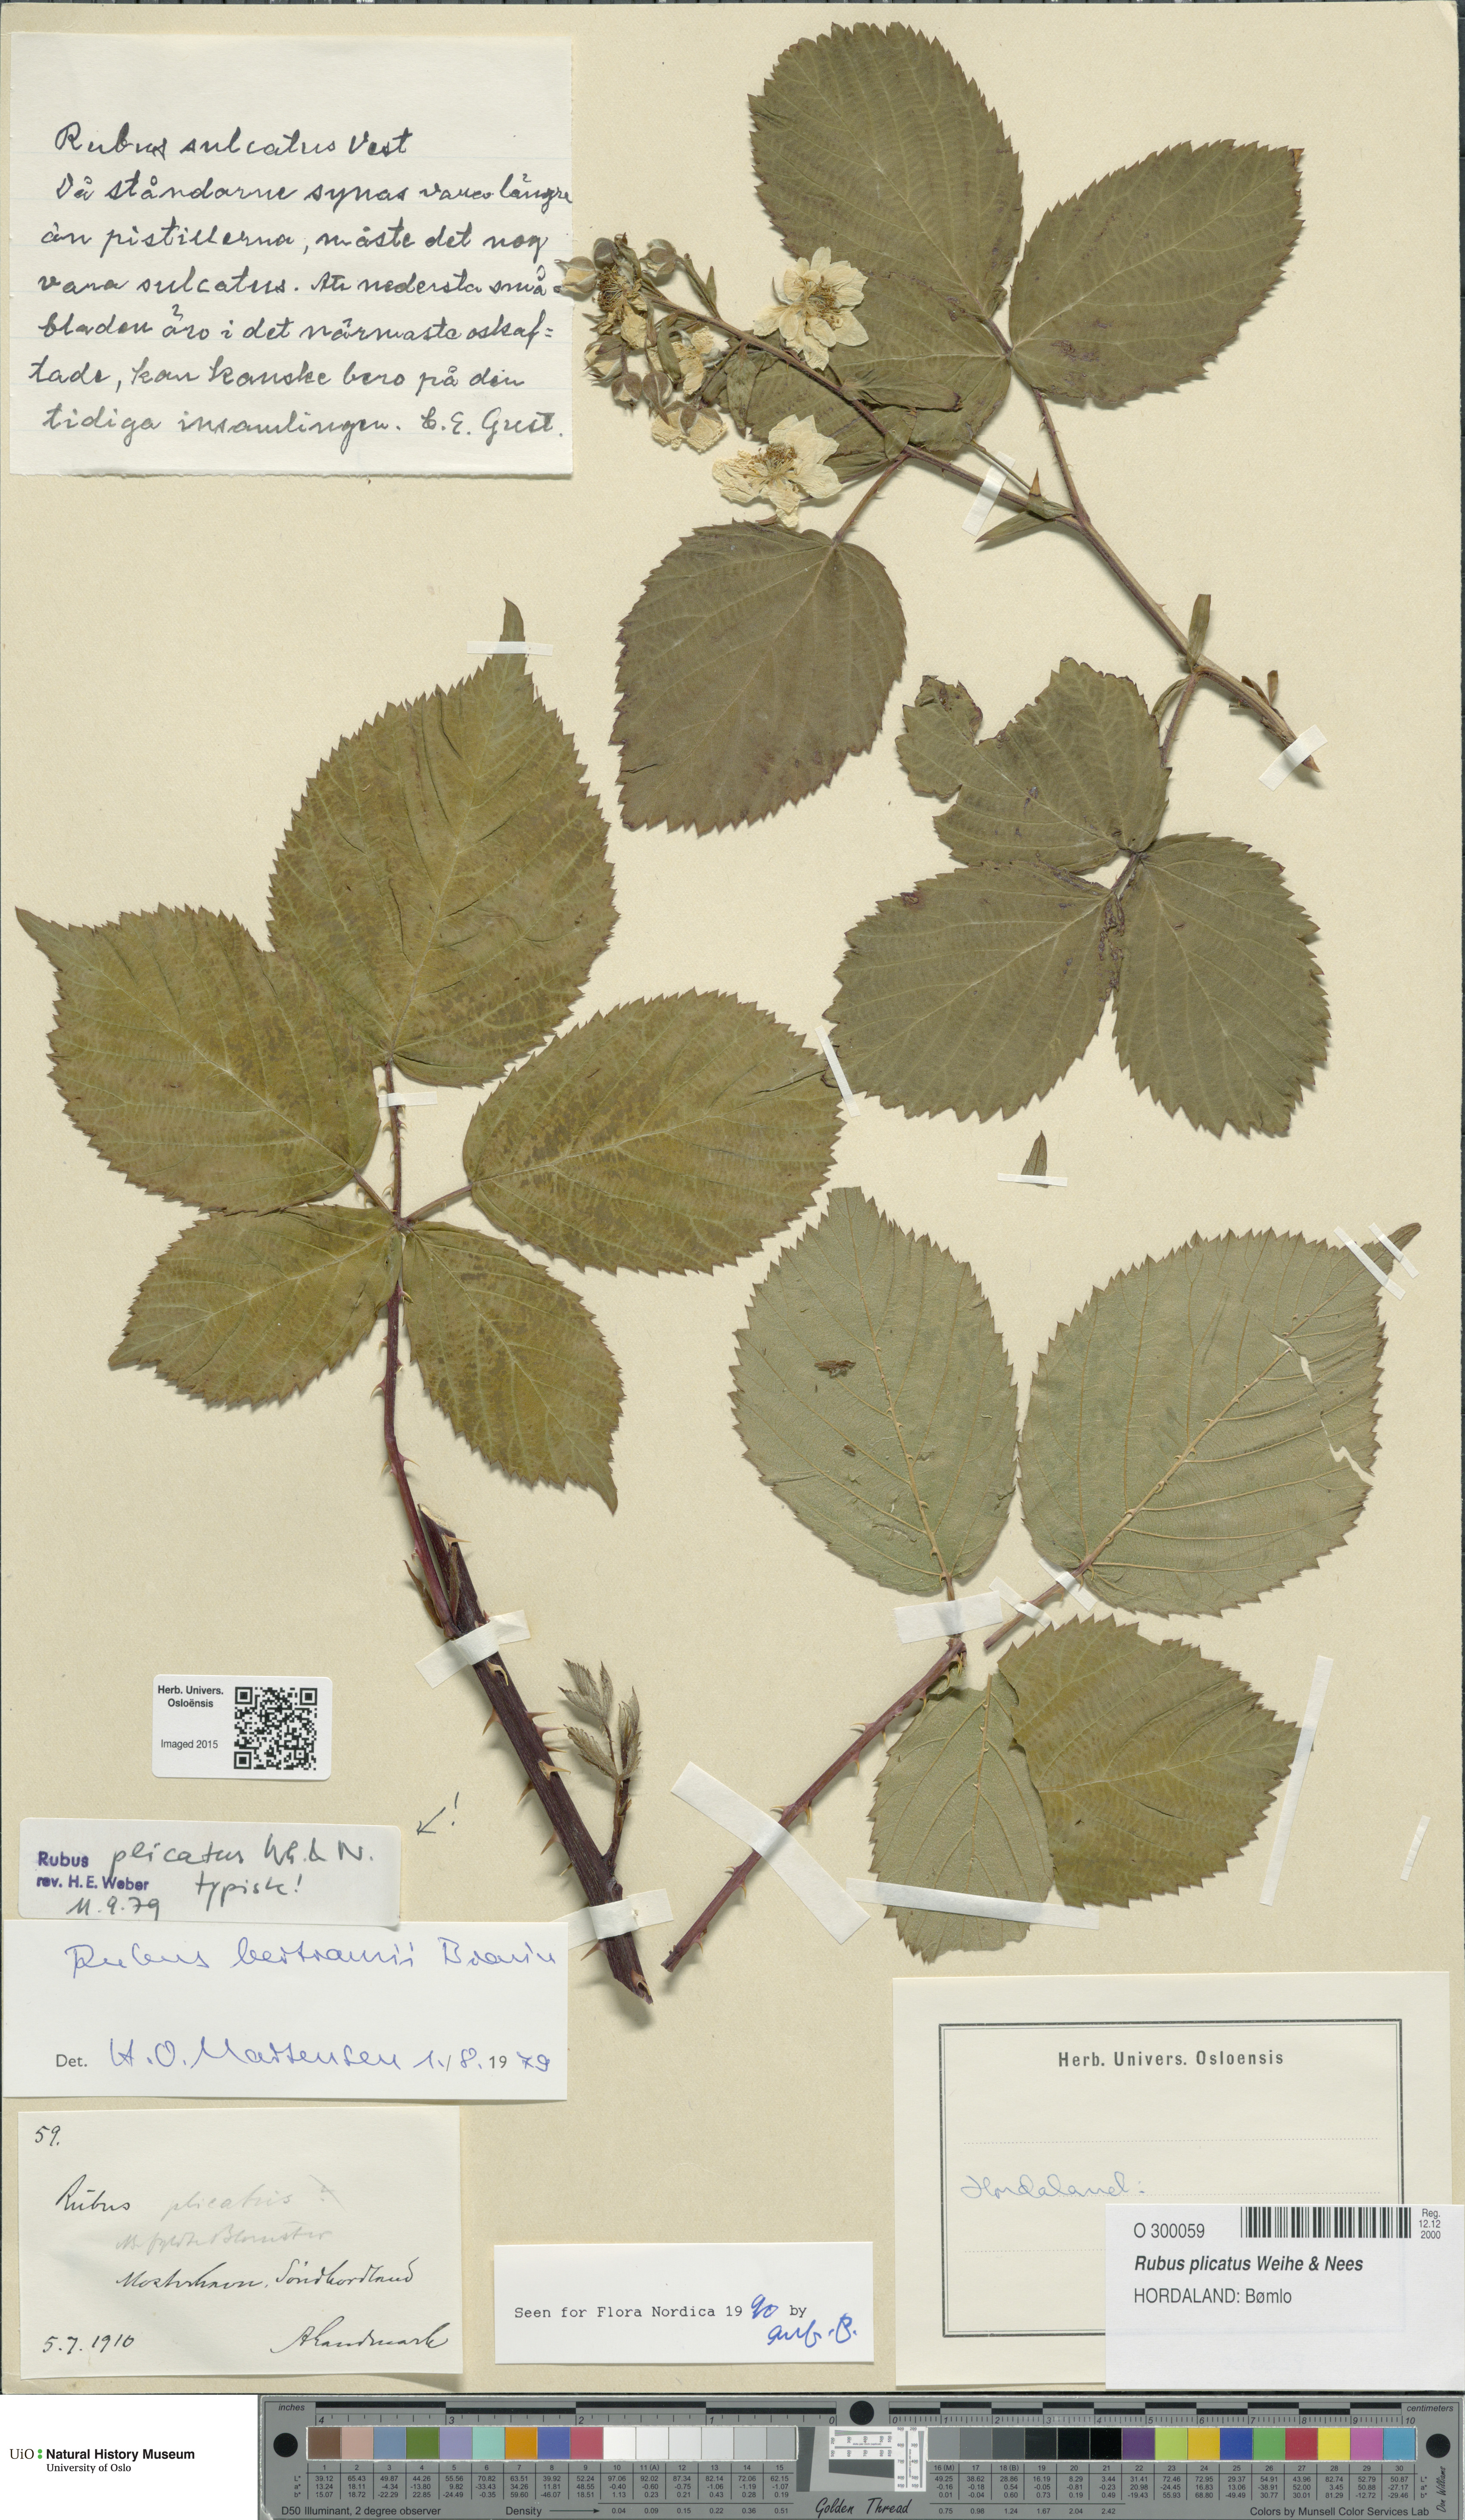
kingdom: Plantae
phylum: Tracheophyta
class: Magnoliopsida
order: Rosales
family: Rosaceae
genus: Rubus
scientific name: Rubus fruticosus
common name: Blackberry, bramble
